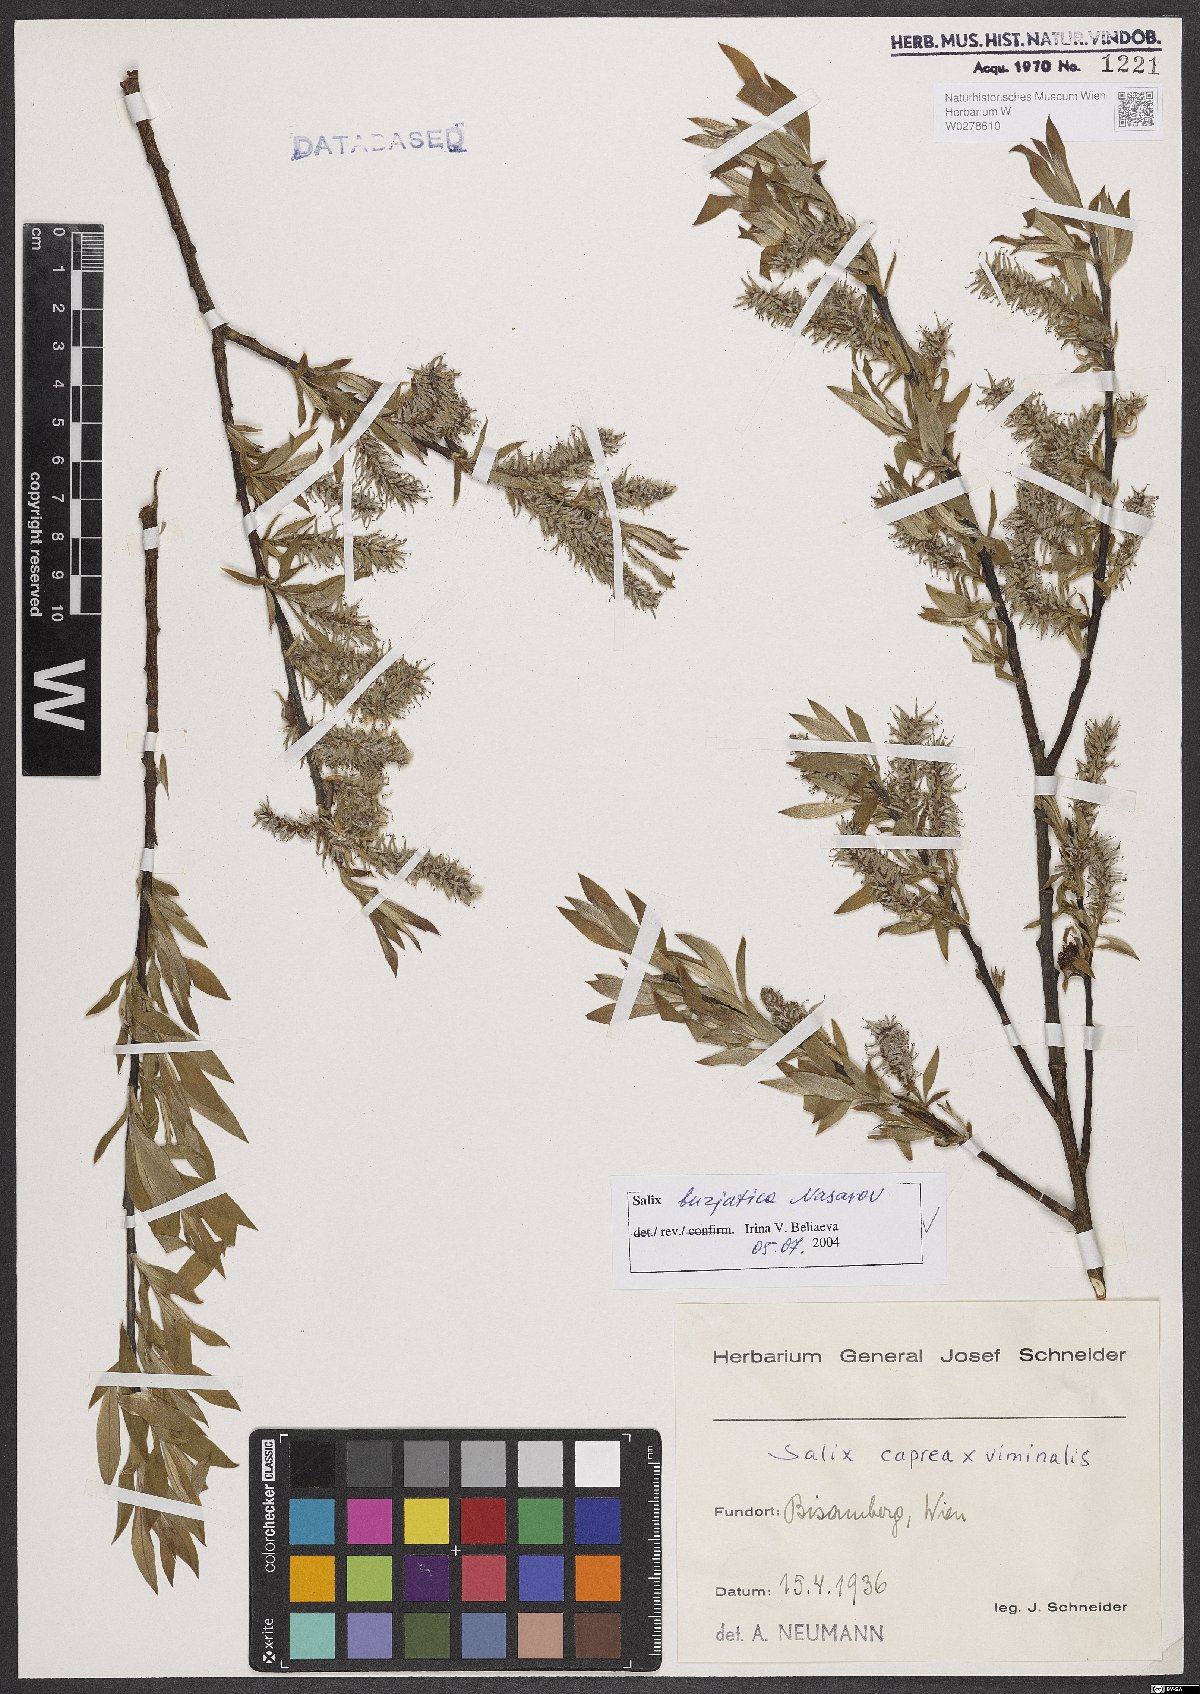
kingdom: Plantae
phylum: Tracheophyta
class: Magnoliopsida
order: Malpighiales
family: Salicaceae
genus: Salix
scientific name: Salix gmelinii
